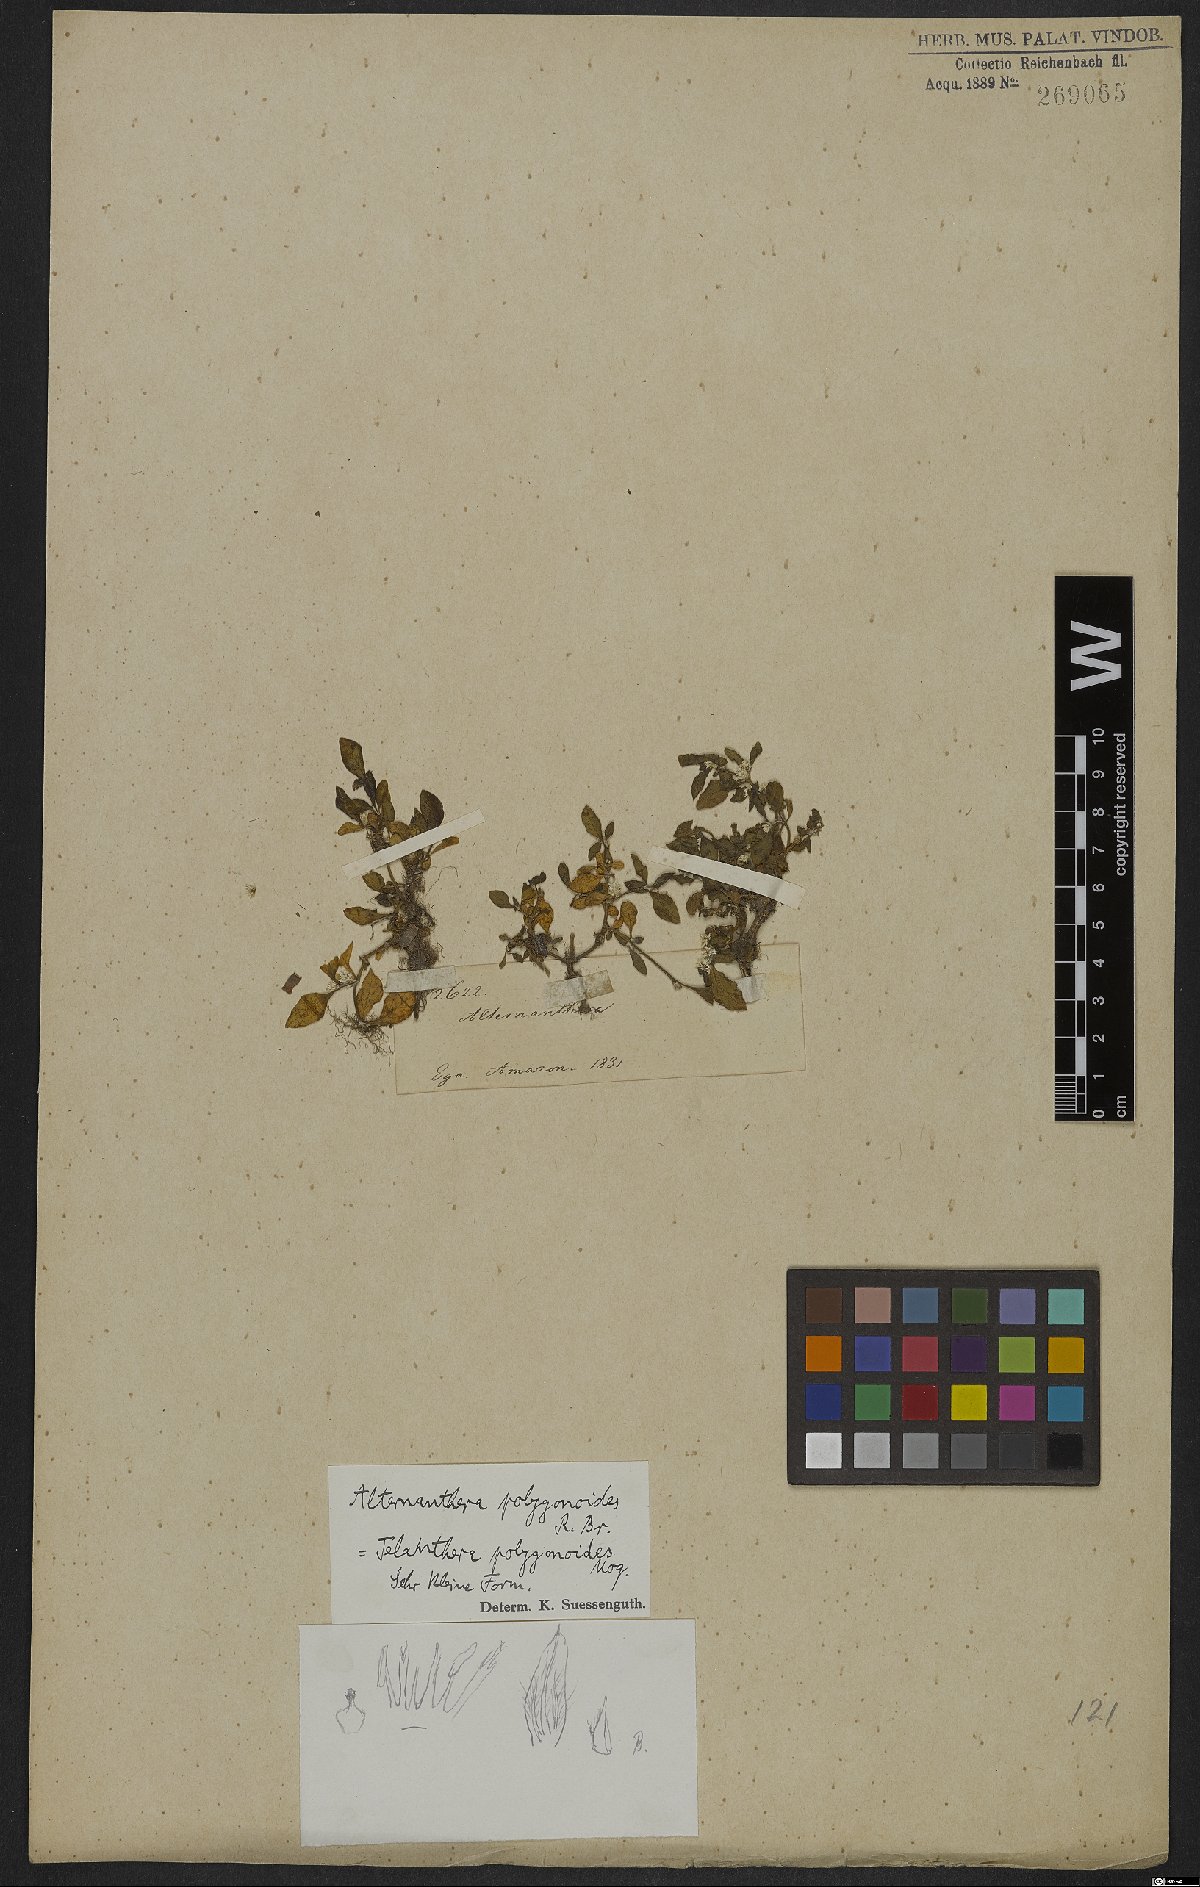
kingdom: Plantae
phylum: Tracheophyta
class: Magnoliopsida
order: Caryophyllales
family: Amaranthaceae
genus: Alternanthera
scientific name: Alternanthera sessilis
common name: Sessile joyweed
